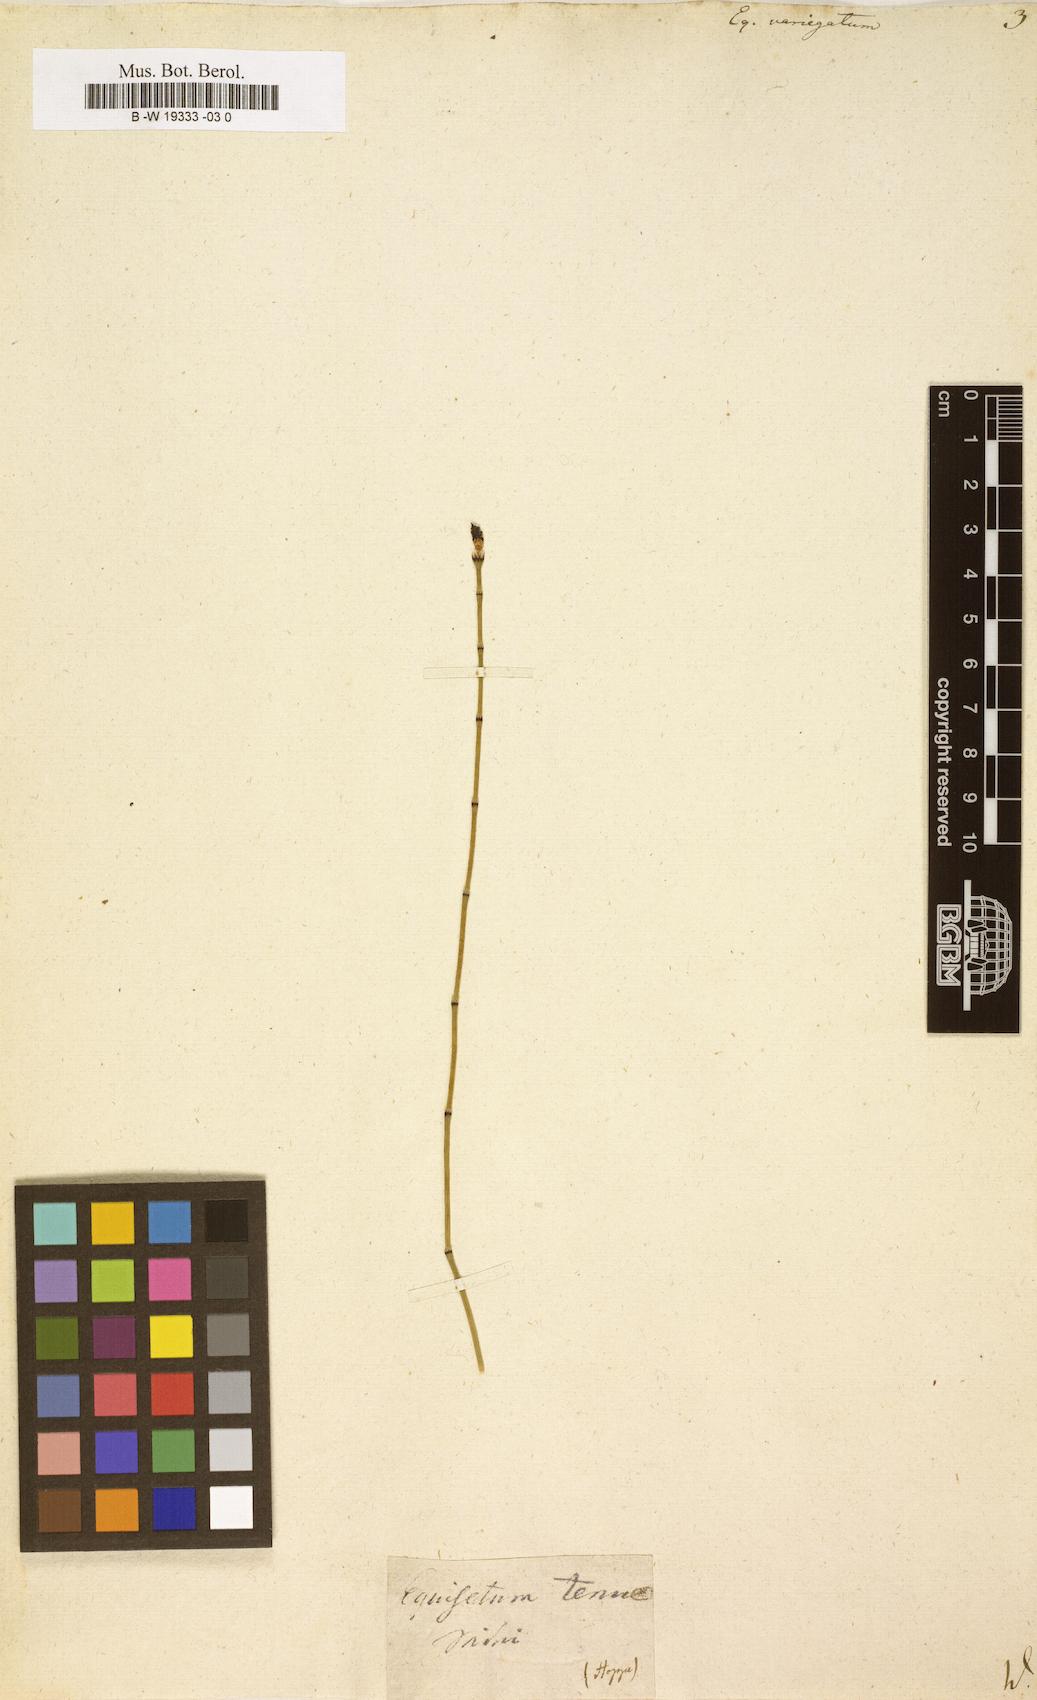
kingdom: Plantae
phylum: Tracheophyta
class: Polypodiopsida
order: Equisetales
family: Equisetaceae
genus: Equisetum
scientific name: Equisetum variegatum
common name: Variegated horsetail
